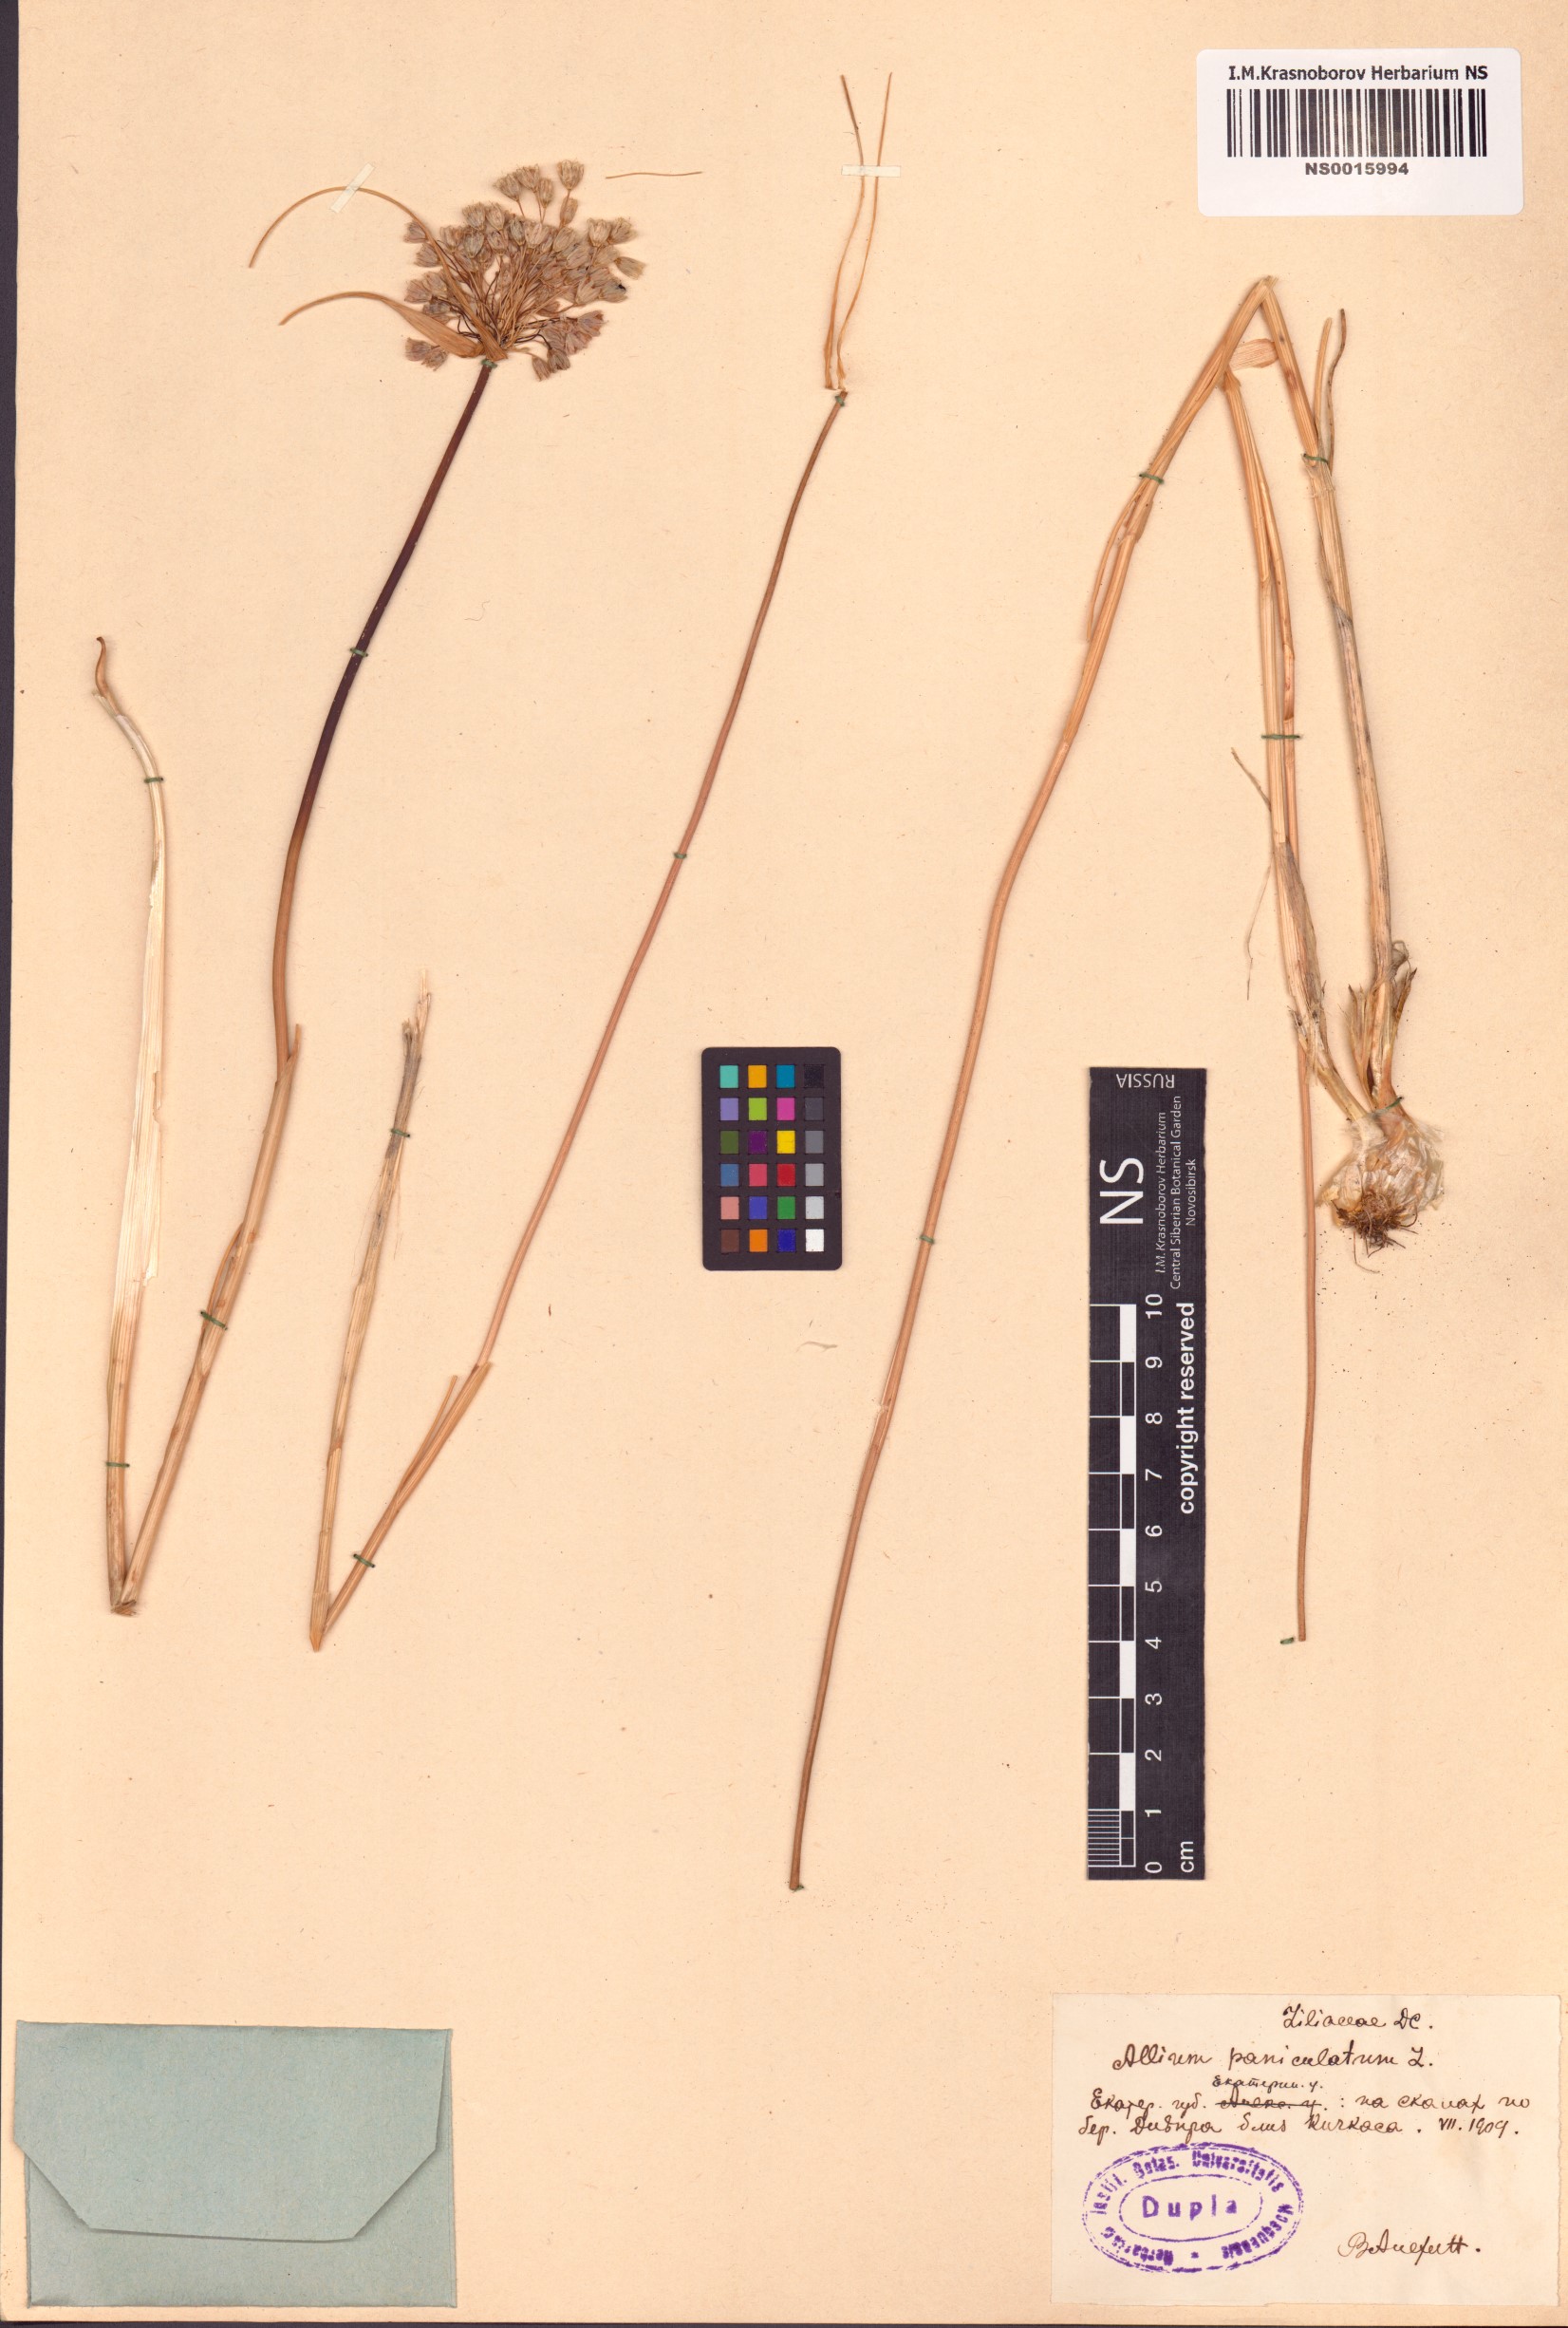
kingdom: Plantae
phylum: Tracheophyta
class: Liliopsida
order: Asparagales
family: Amaryllidaceae
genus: Allium
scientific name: Allium paniculatum
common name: Pale garlic
